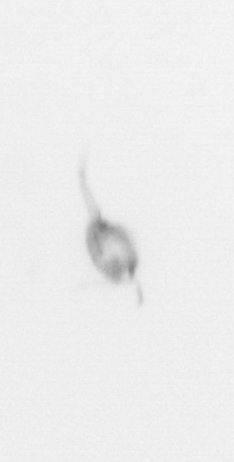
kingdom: Animalia
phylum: Arthropoda
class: Copepoda
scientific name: Copepoda
